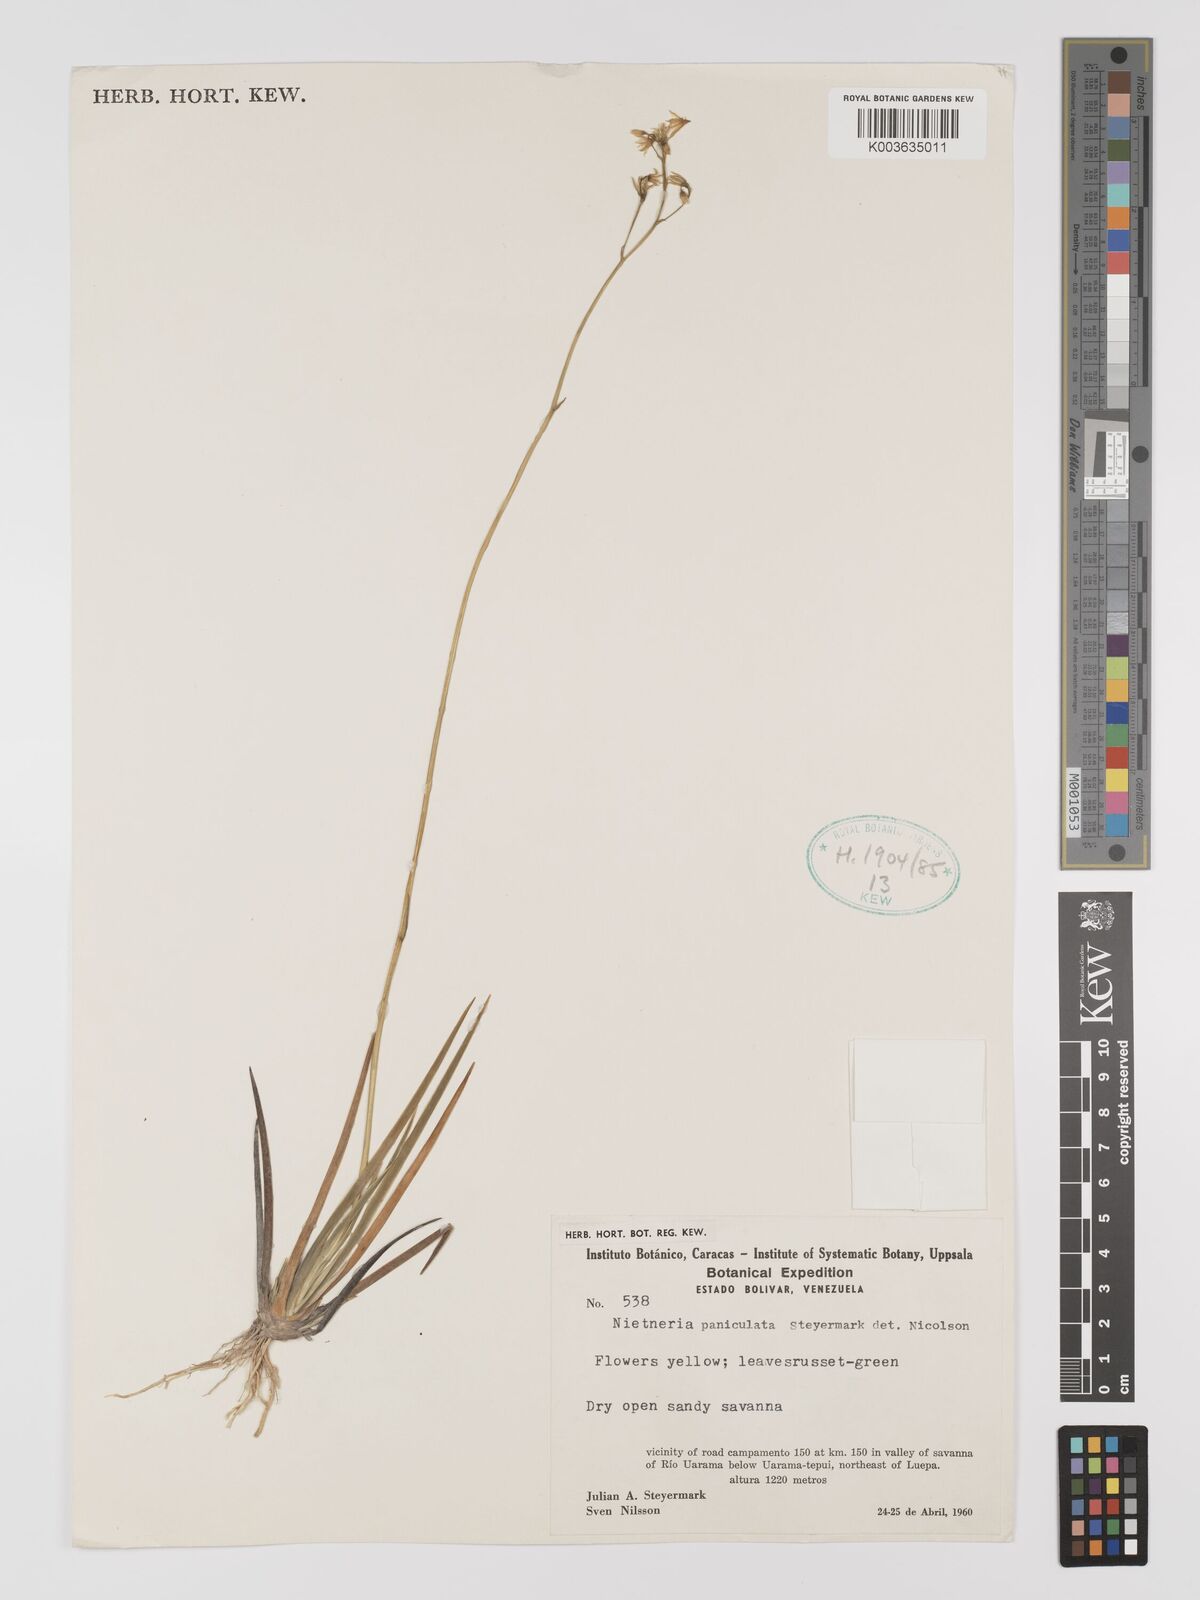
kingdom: Plantae
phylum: Tracheophyta
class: Liliopsida
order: Dioscoreales
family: Nartheciaceae
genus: Nietneria
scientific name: Nietneria paniculata
